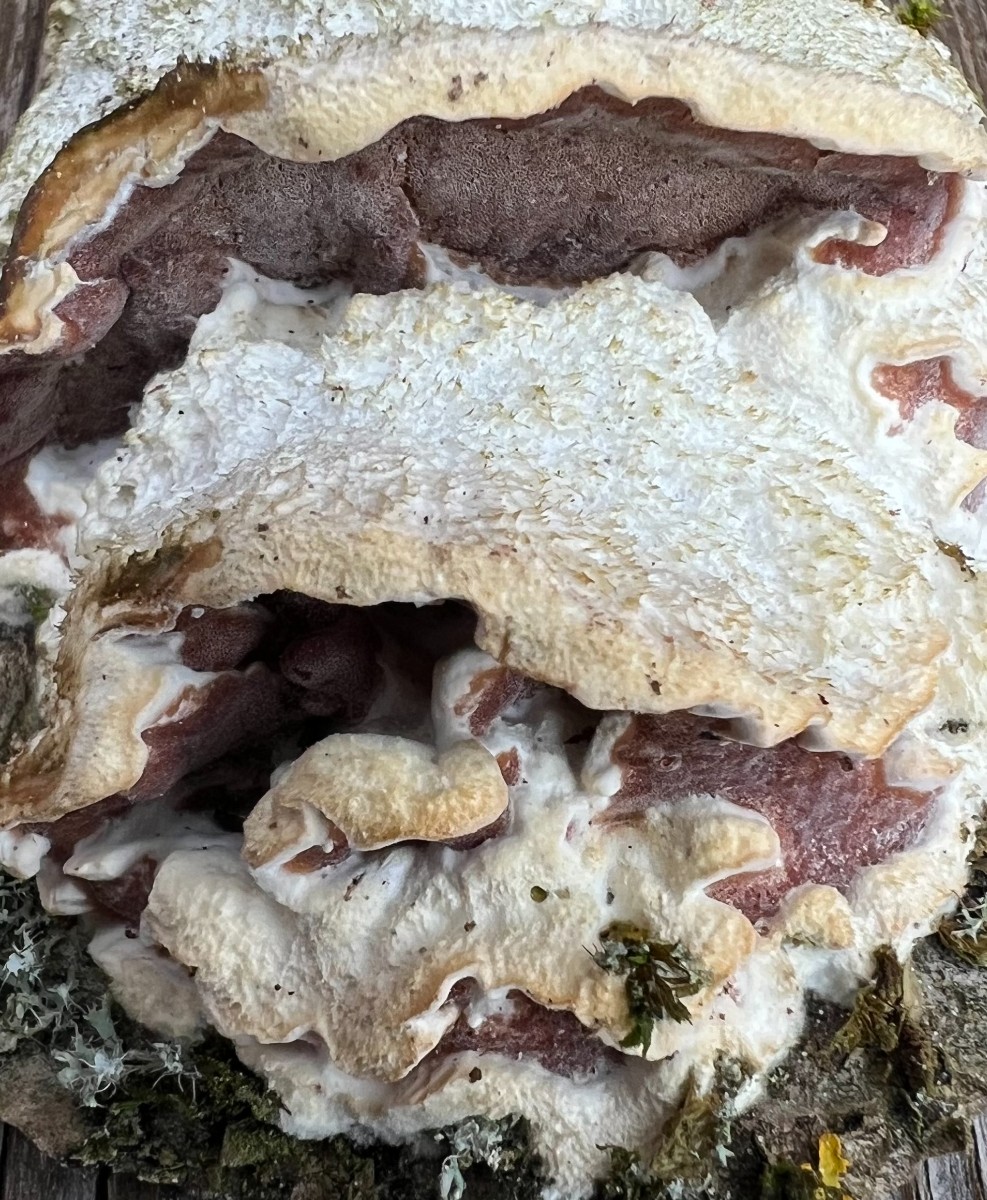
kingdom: Fungi
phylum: Basidiomycota
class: Agaricomycetes
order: Polyporales
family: Irpicaceae
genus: Vitreoporus
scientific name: Vitreoporus dichrous
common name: tofarvet foldporesvamp
